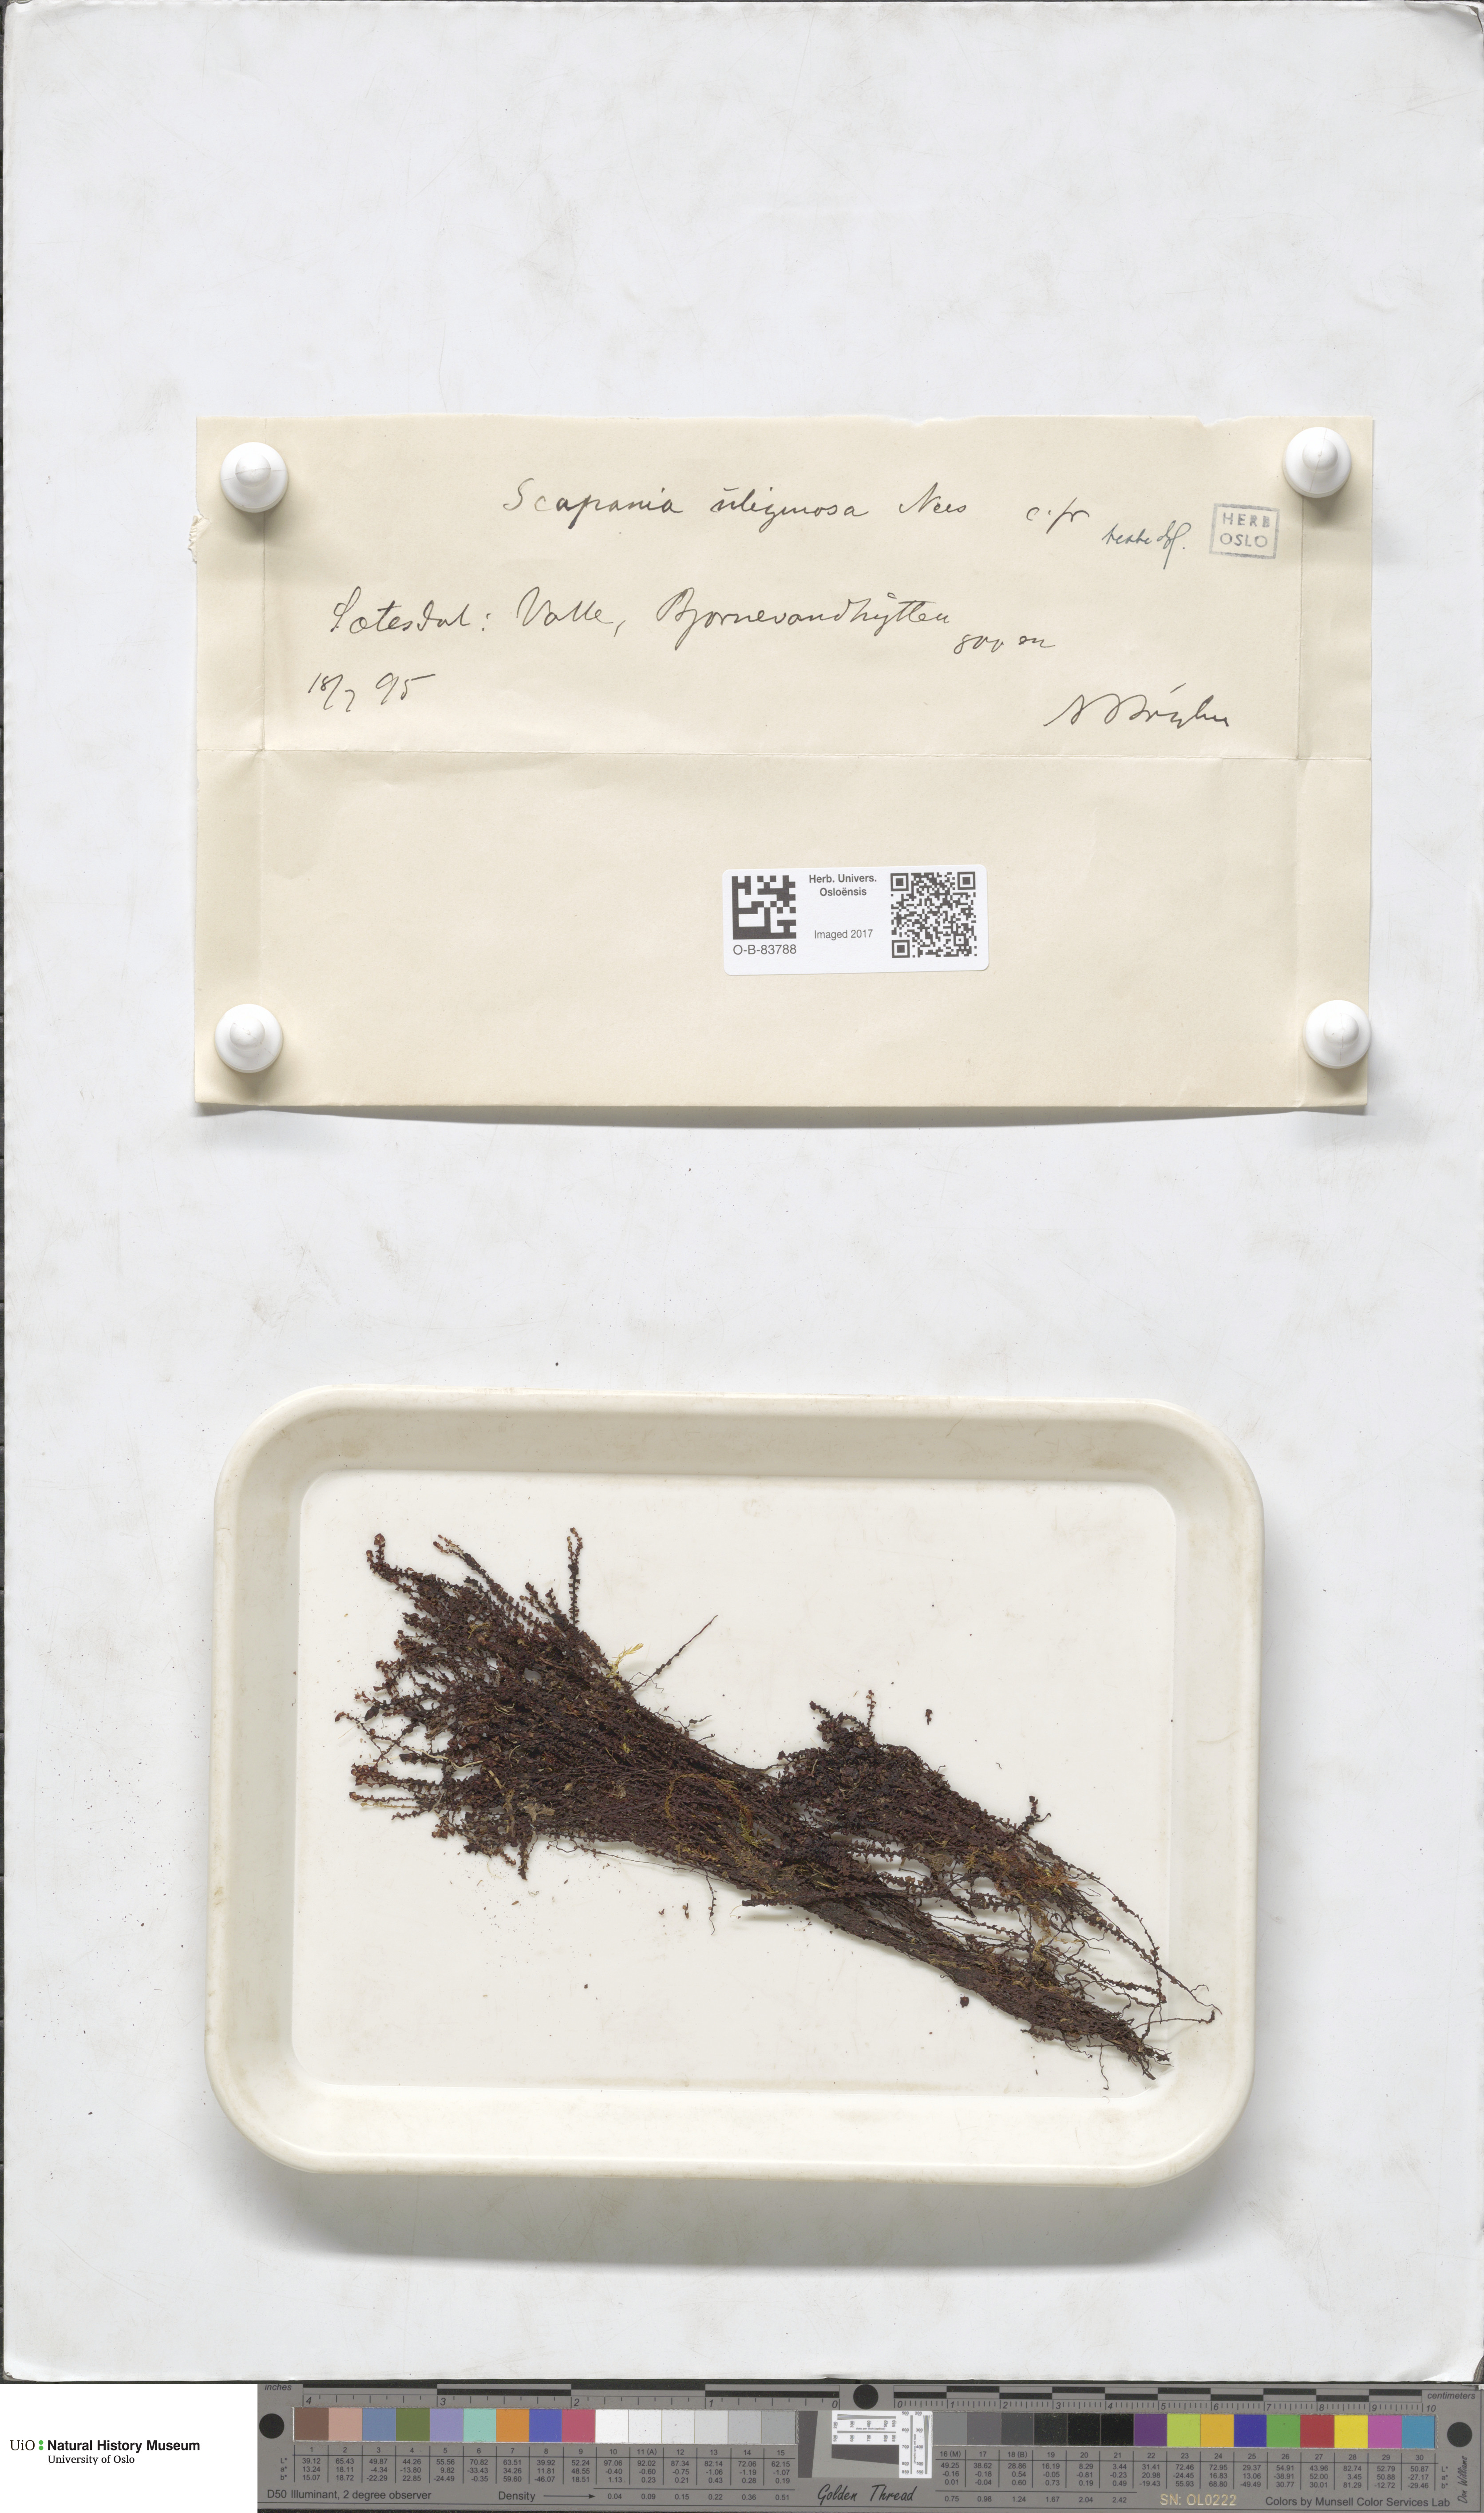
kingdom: Plantae
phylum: Marchantiophyta
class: Jungermanniopsida
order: Jungermanniales
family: Scapaniaceae
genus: Scapania
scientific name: Scapania uliginosa
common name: Marsh earwort
